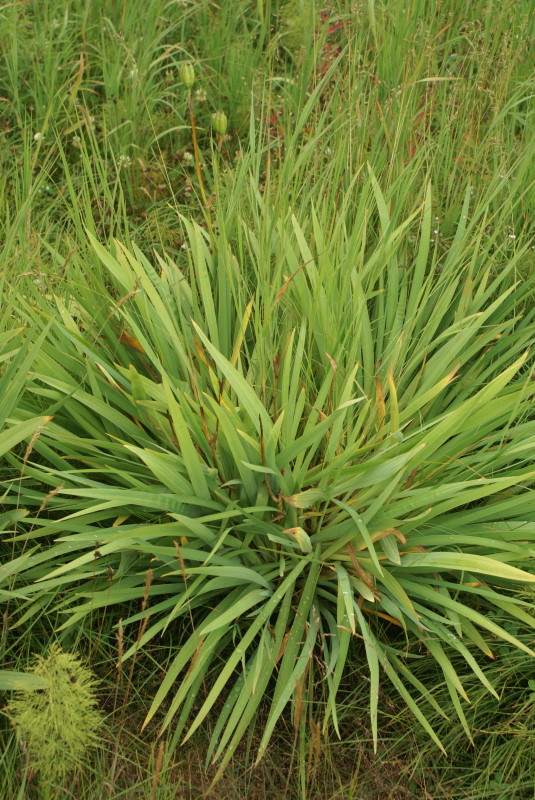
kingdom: Plantae
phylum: Tracheophyta
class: Pinopsida
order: Pinales
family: Pinaceae
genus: Pinus
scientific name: Pinus pumila
